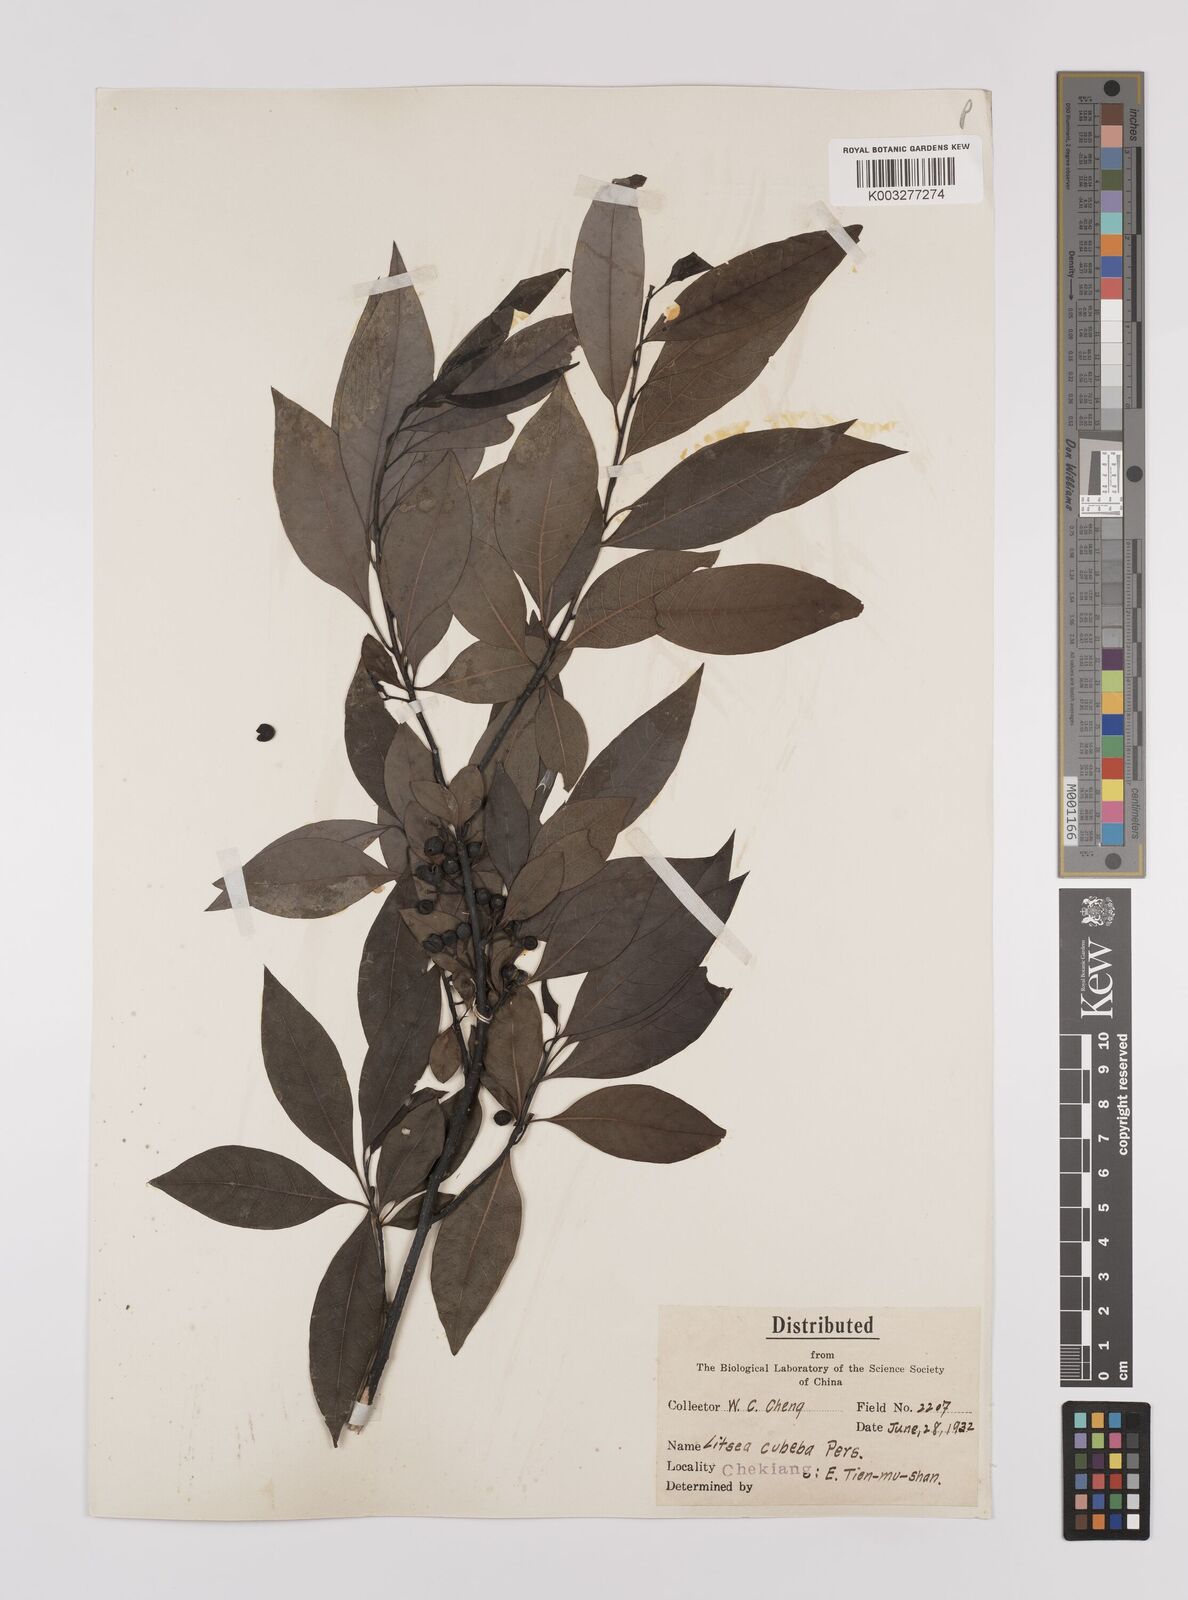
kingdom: Plantae
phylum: Tracheophyta
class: Magnoliopsida
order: Laurales
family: Lauraceae
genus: Litsea
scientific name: Litsea cubeba
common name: Mountain-pepper
